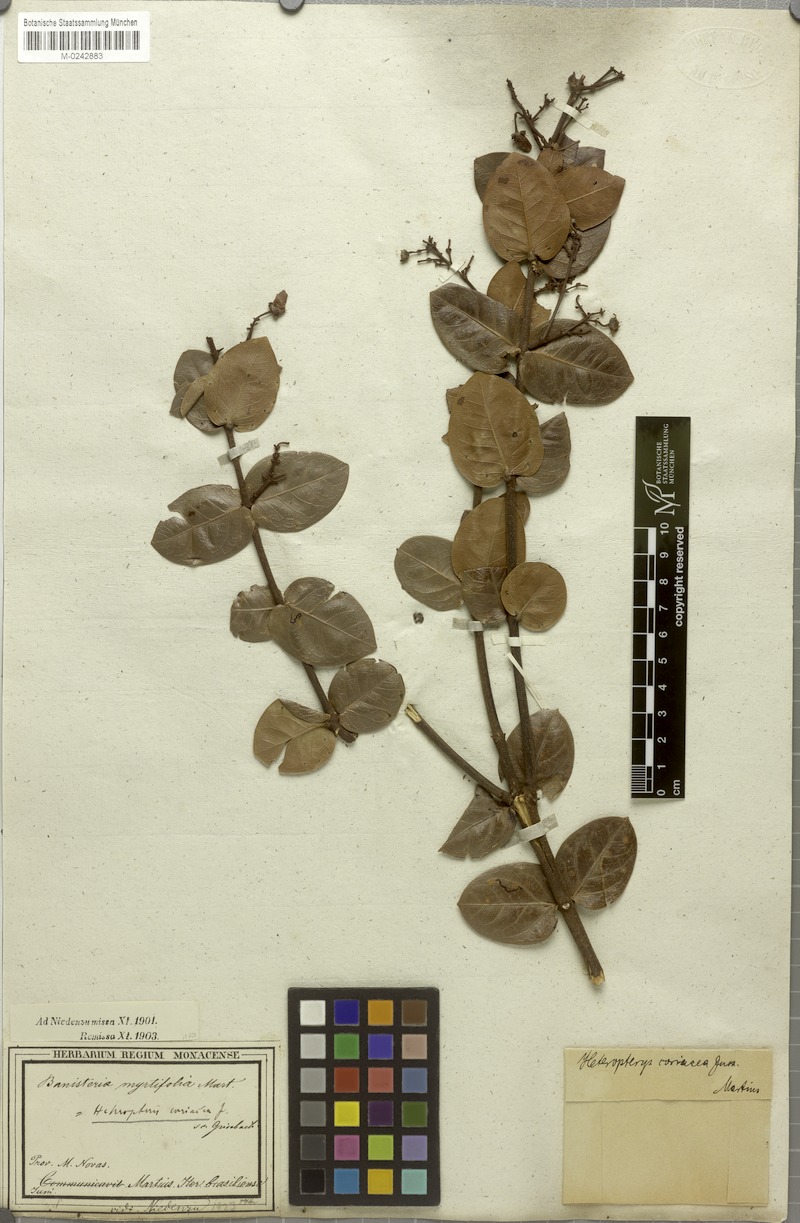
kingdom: Plantae
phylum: Tracheophyta
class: Magnoliopsida
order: Malpighiales
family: Malpighiaceae
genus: Heteropterys
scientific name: Heteropterys coriacea
